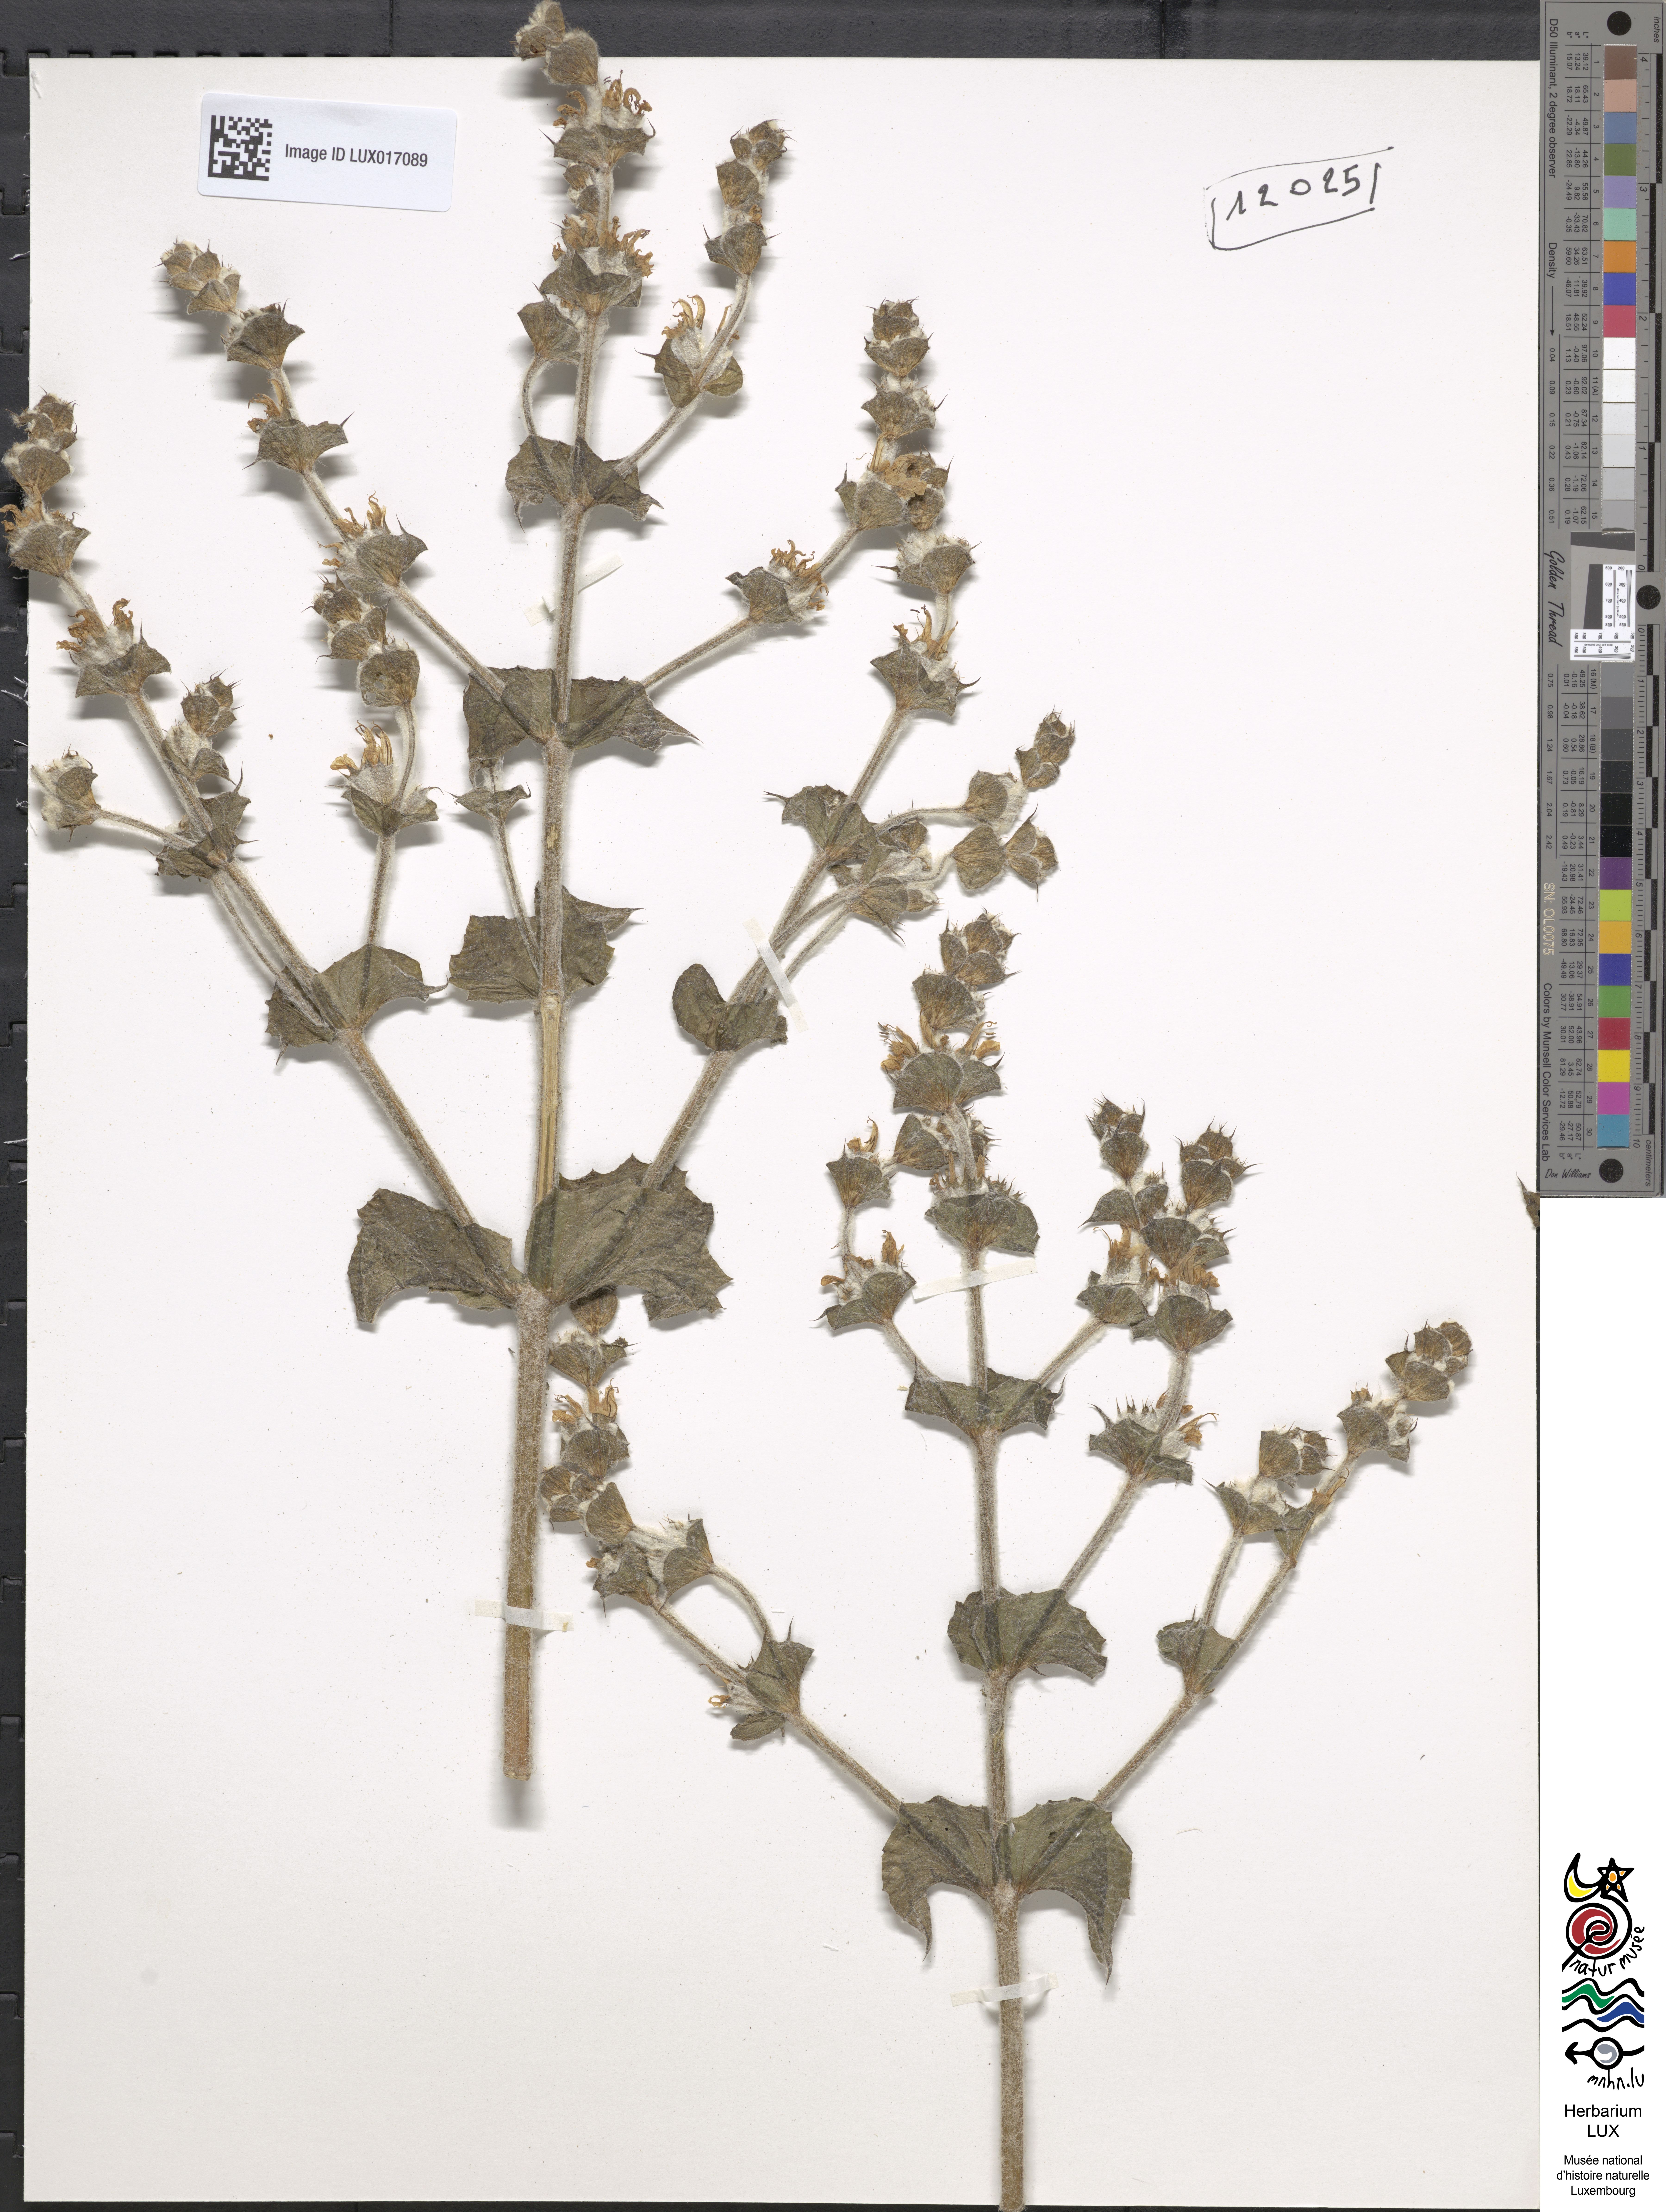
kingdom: Plantae
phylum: Tracheophyta
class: Magnoliopsida
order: Lamiales
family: Lamiaceae
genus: Salvia
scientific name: Salvia aethiopis
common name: Mediterranean sage
